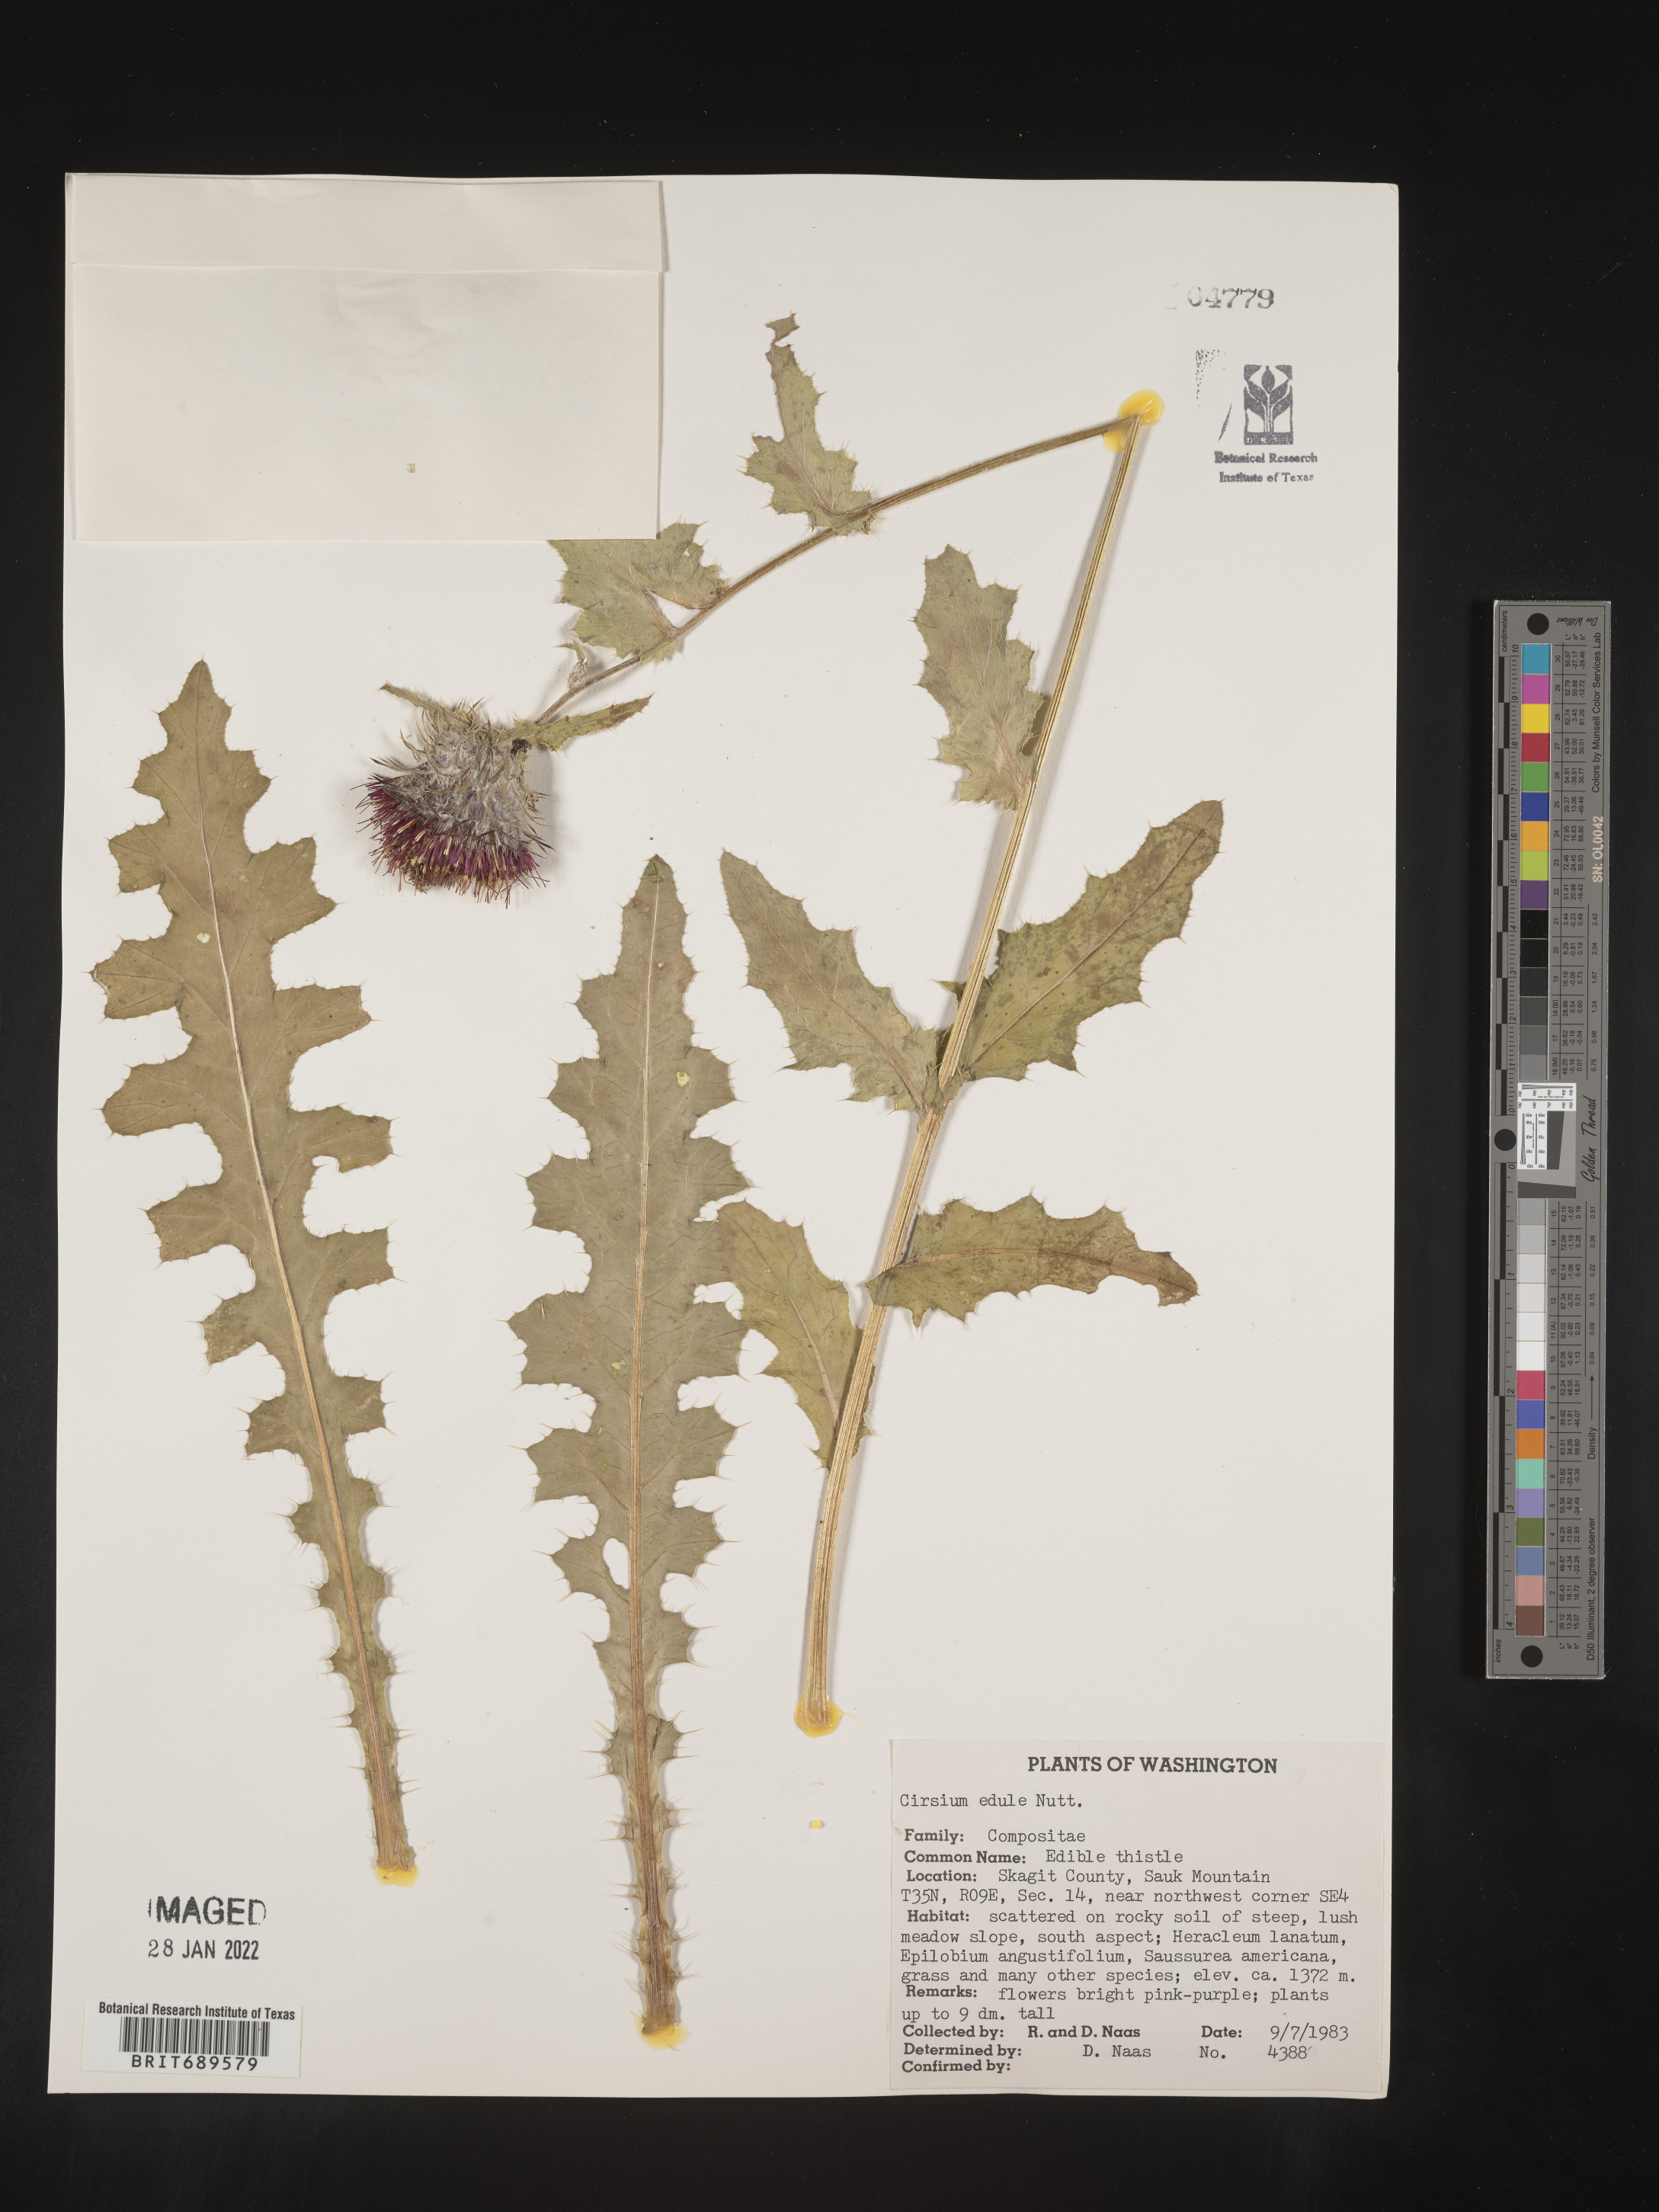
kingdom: Plantae
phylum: Tracheophyta
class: Magnoliopsida
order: Asterales
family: Asteraceae
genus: Cirsium
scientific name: Cirsium edule
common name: Indian thistle
